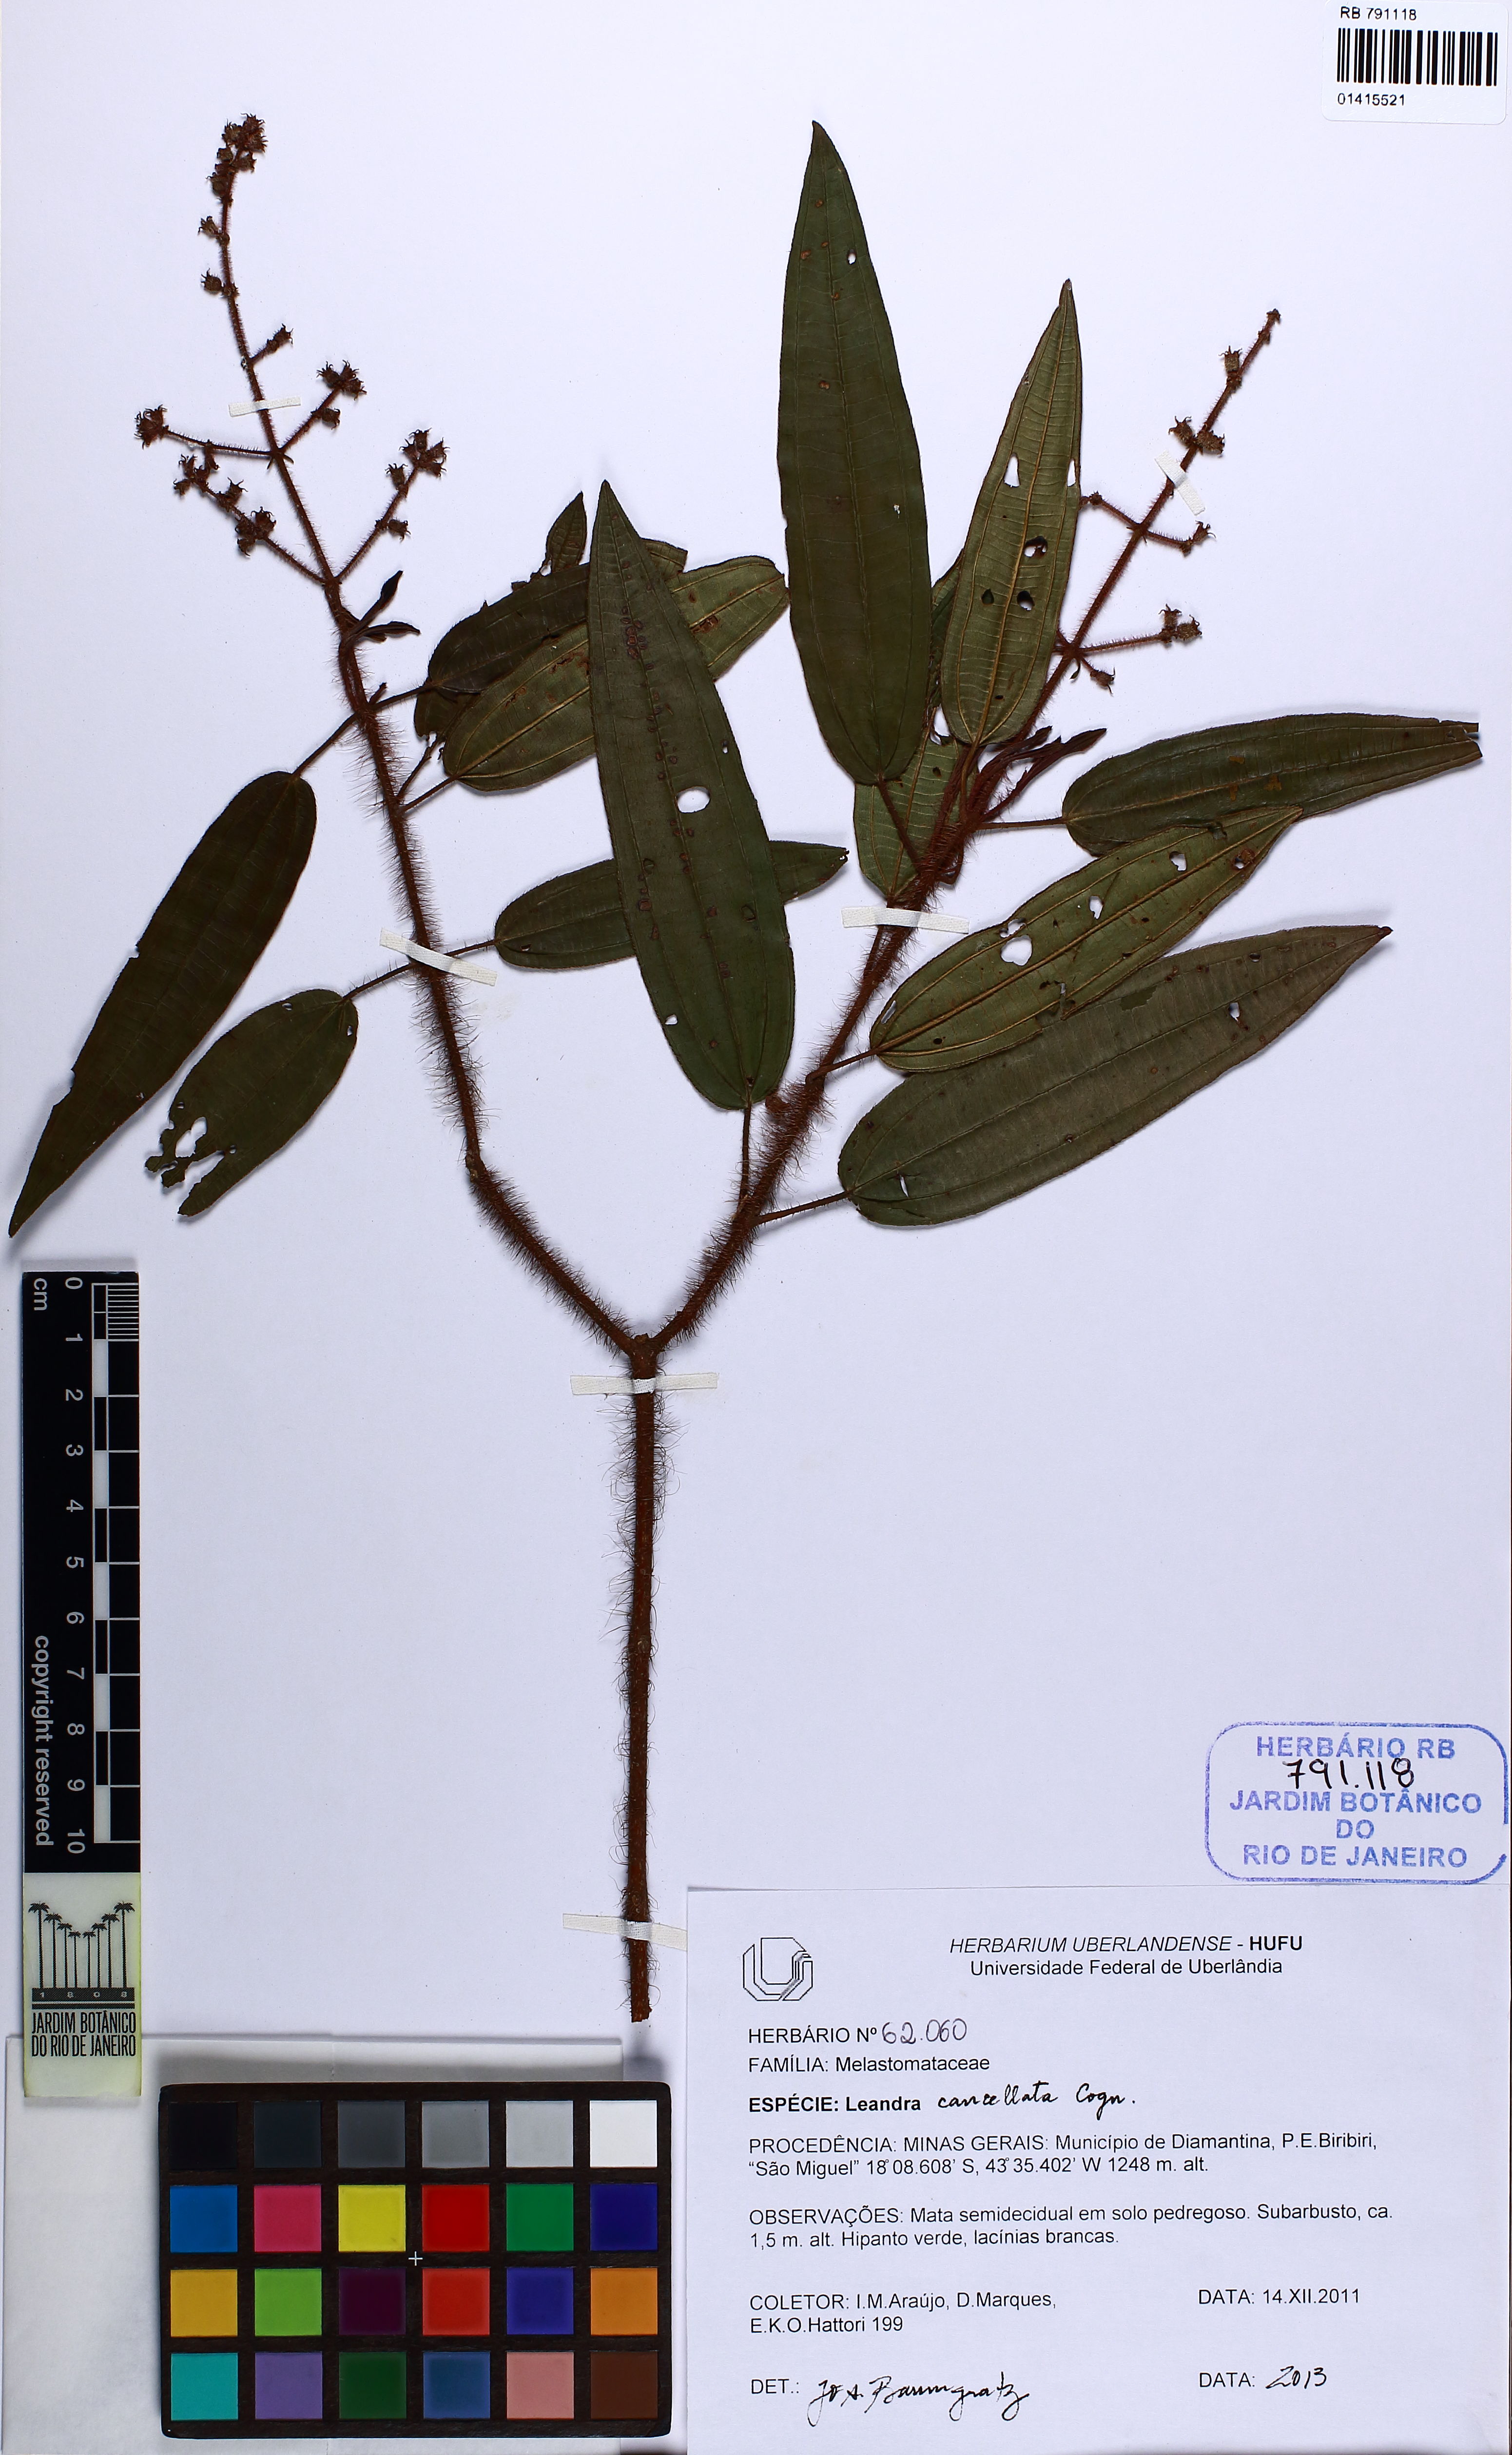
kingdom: Plantae
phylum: Tracheophyta
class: Magnoliopsida
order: Myrtales
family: Melastomataceae
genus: Miconia
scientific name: Miconia cancellata
